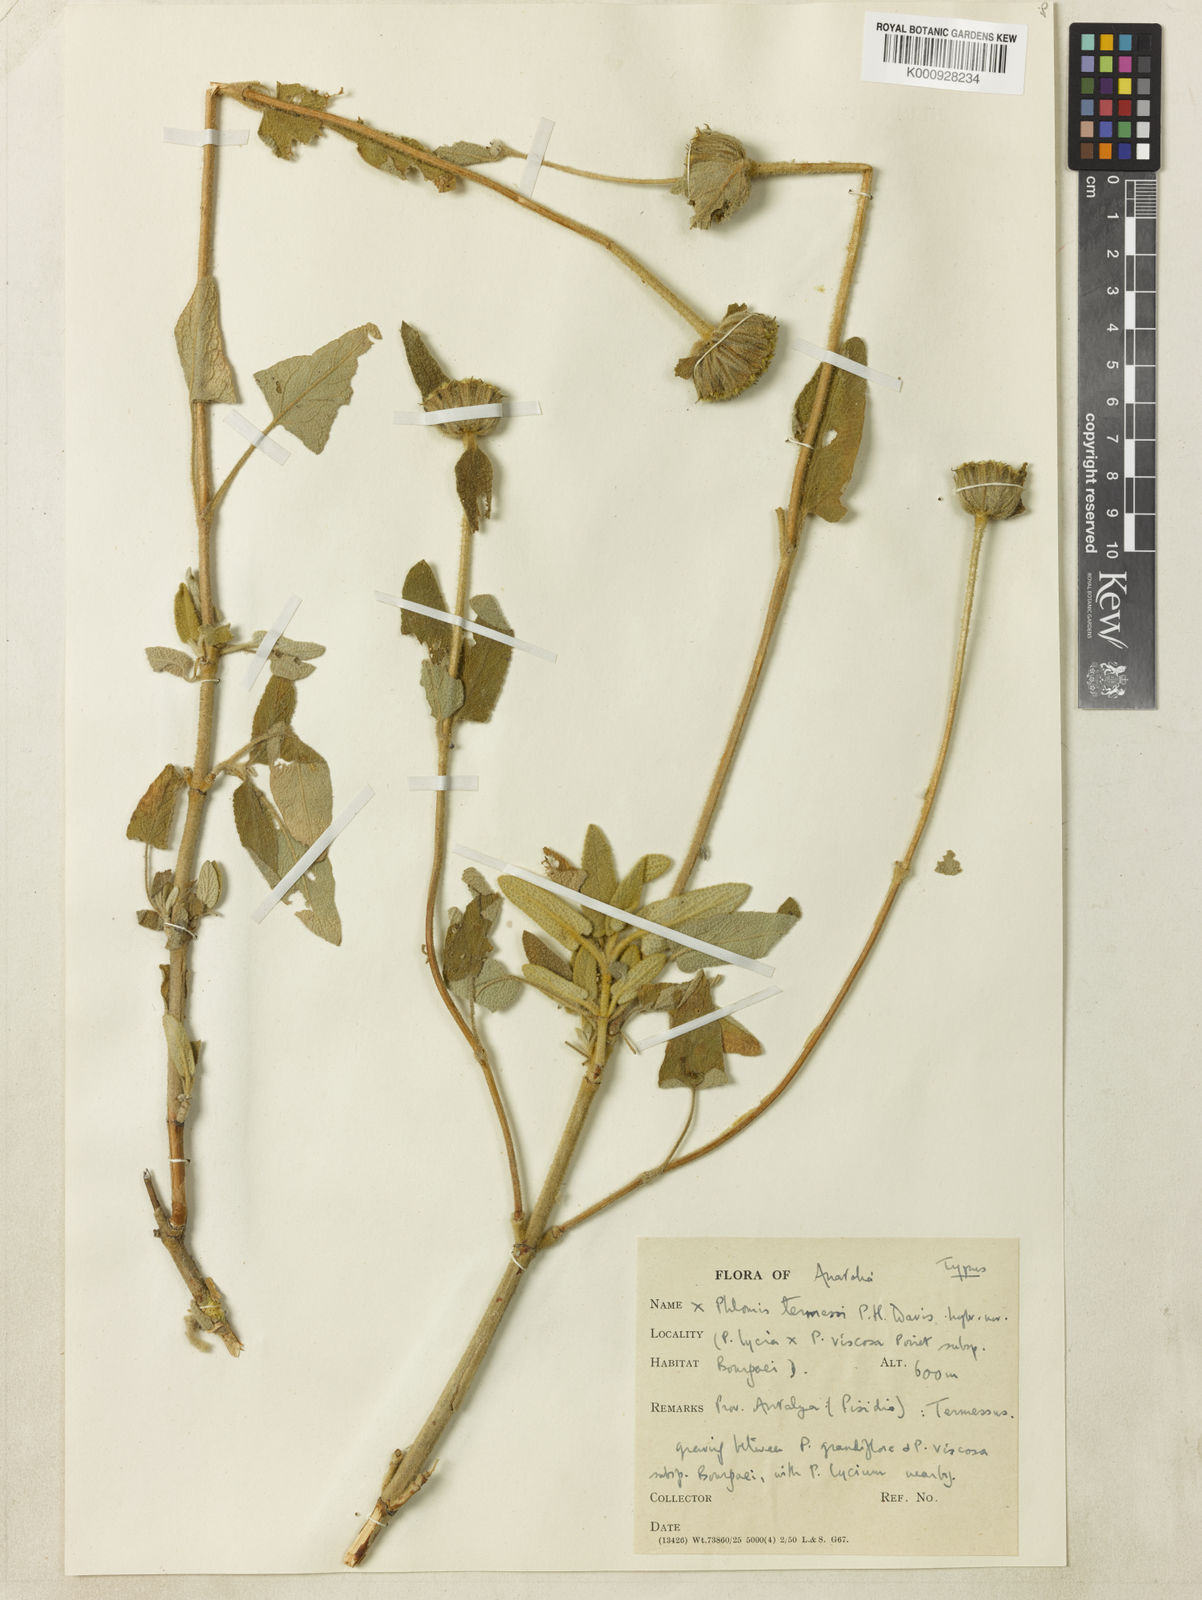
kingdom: Plantae
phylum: Tracheophyta
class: Magnoliopsida
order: Lamiales
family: Lamiaceae
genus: Phlomis
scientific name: Phlomis termessi
